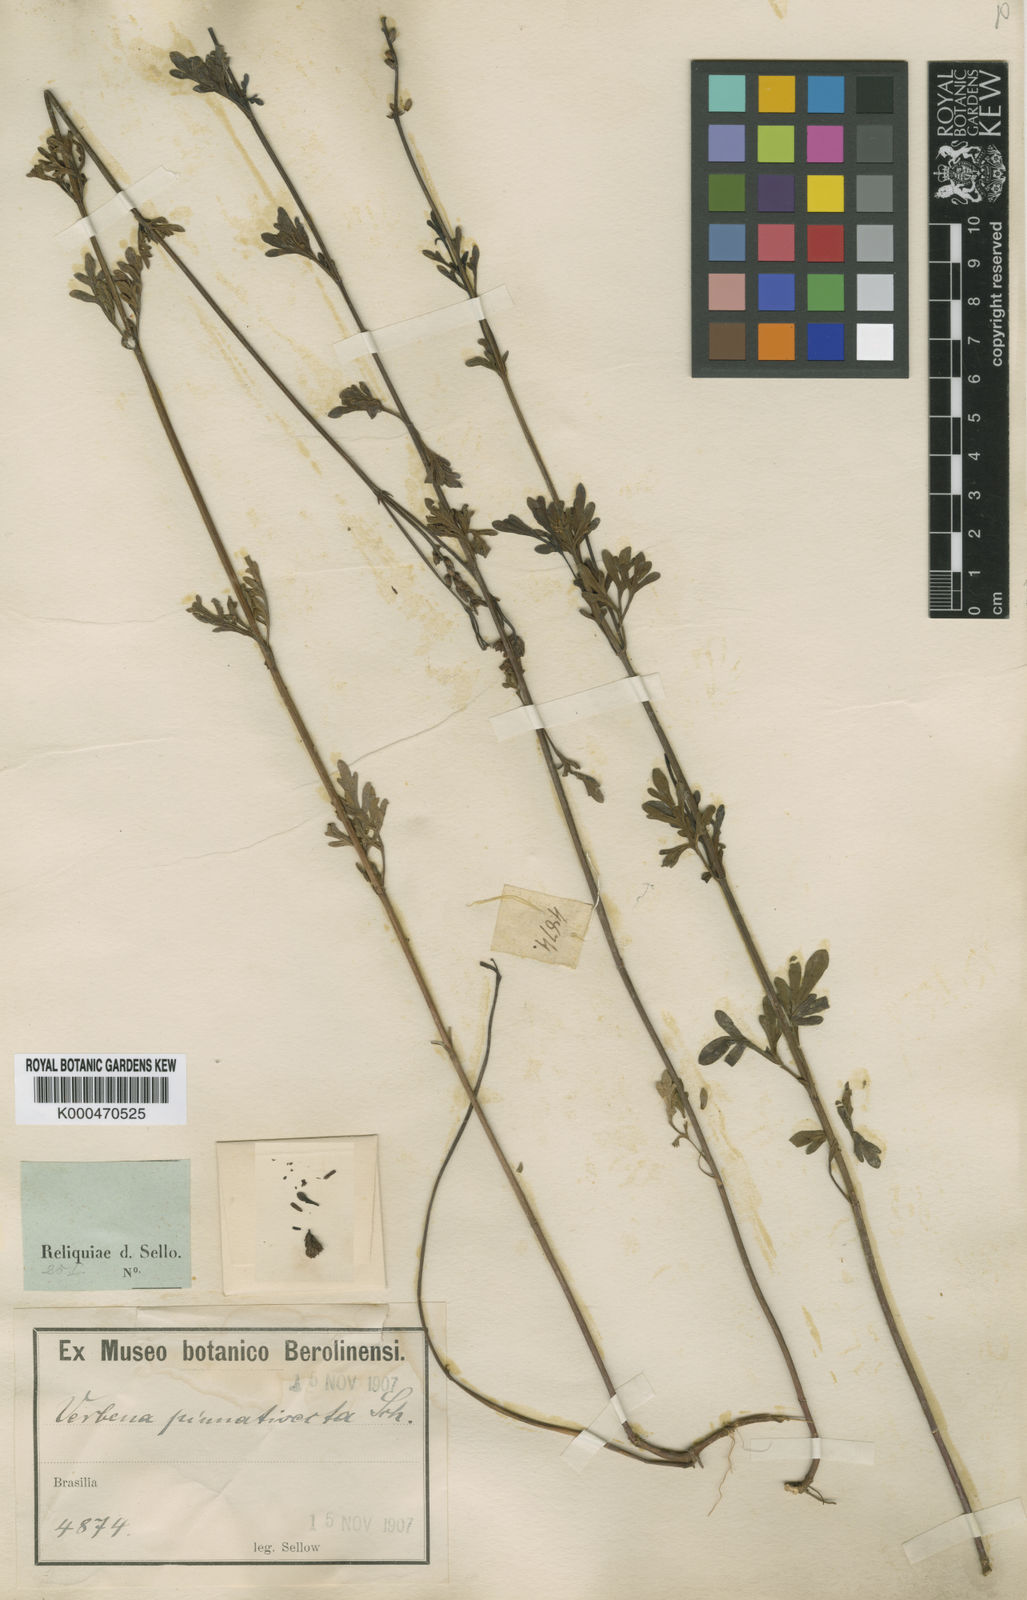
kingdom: Plantae
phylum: Tracheophyta
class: Magnoliopsida
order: Lamiales
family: Verbenaceae
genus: Verbena
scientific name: Verbena filicaulis
